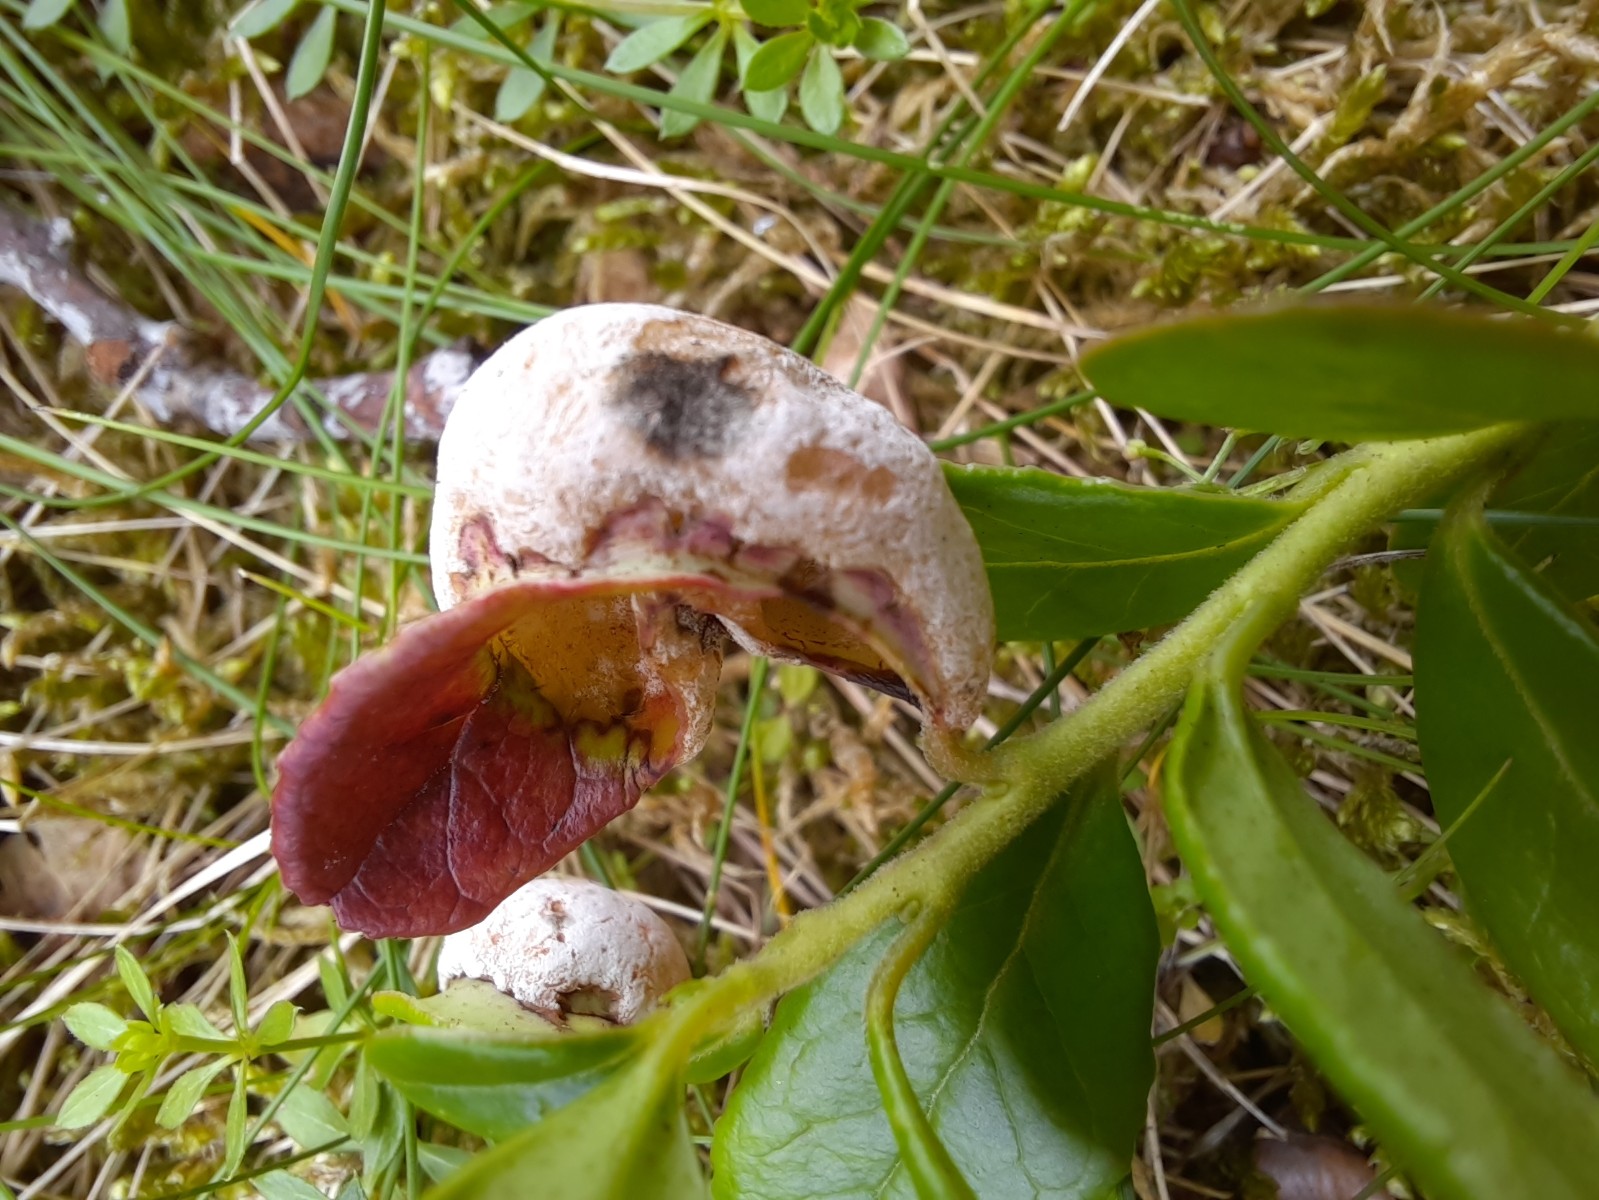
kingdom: Fungi
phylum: Basidiomycota
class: Exobasidiomycetes
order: Exobasidiales
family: Exobasidiaceae
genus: Exobasidium
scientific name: Exobasidium vaccinii
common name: tyttebærblad-bøllesvamp
